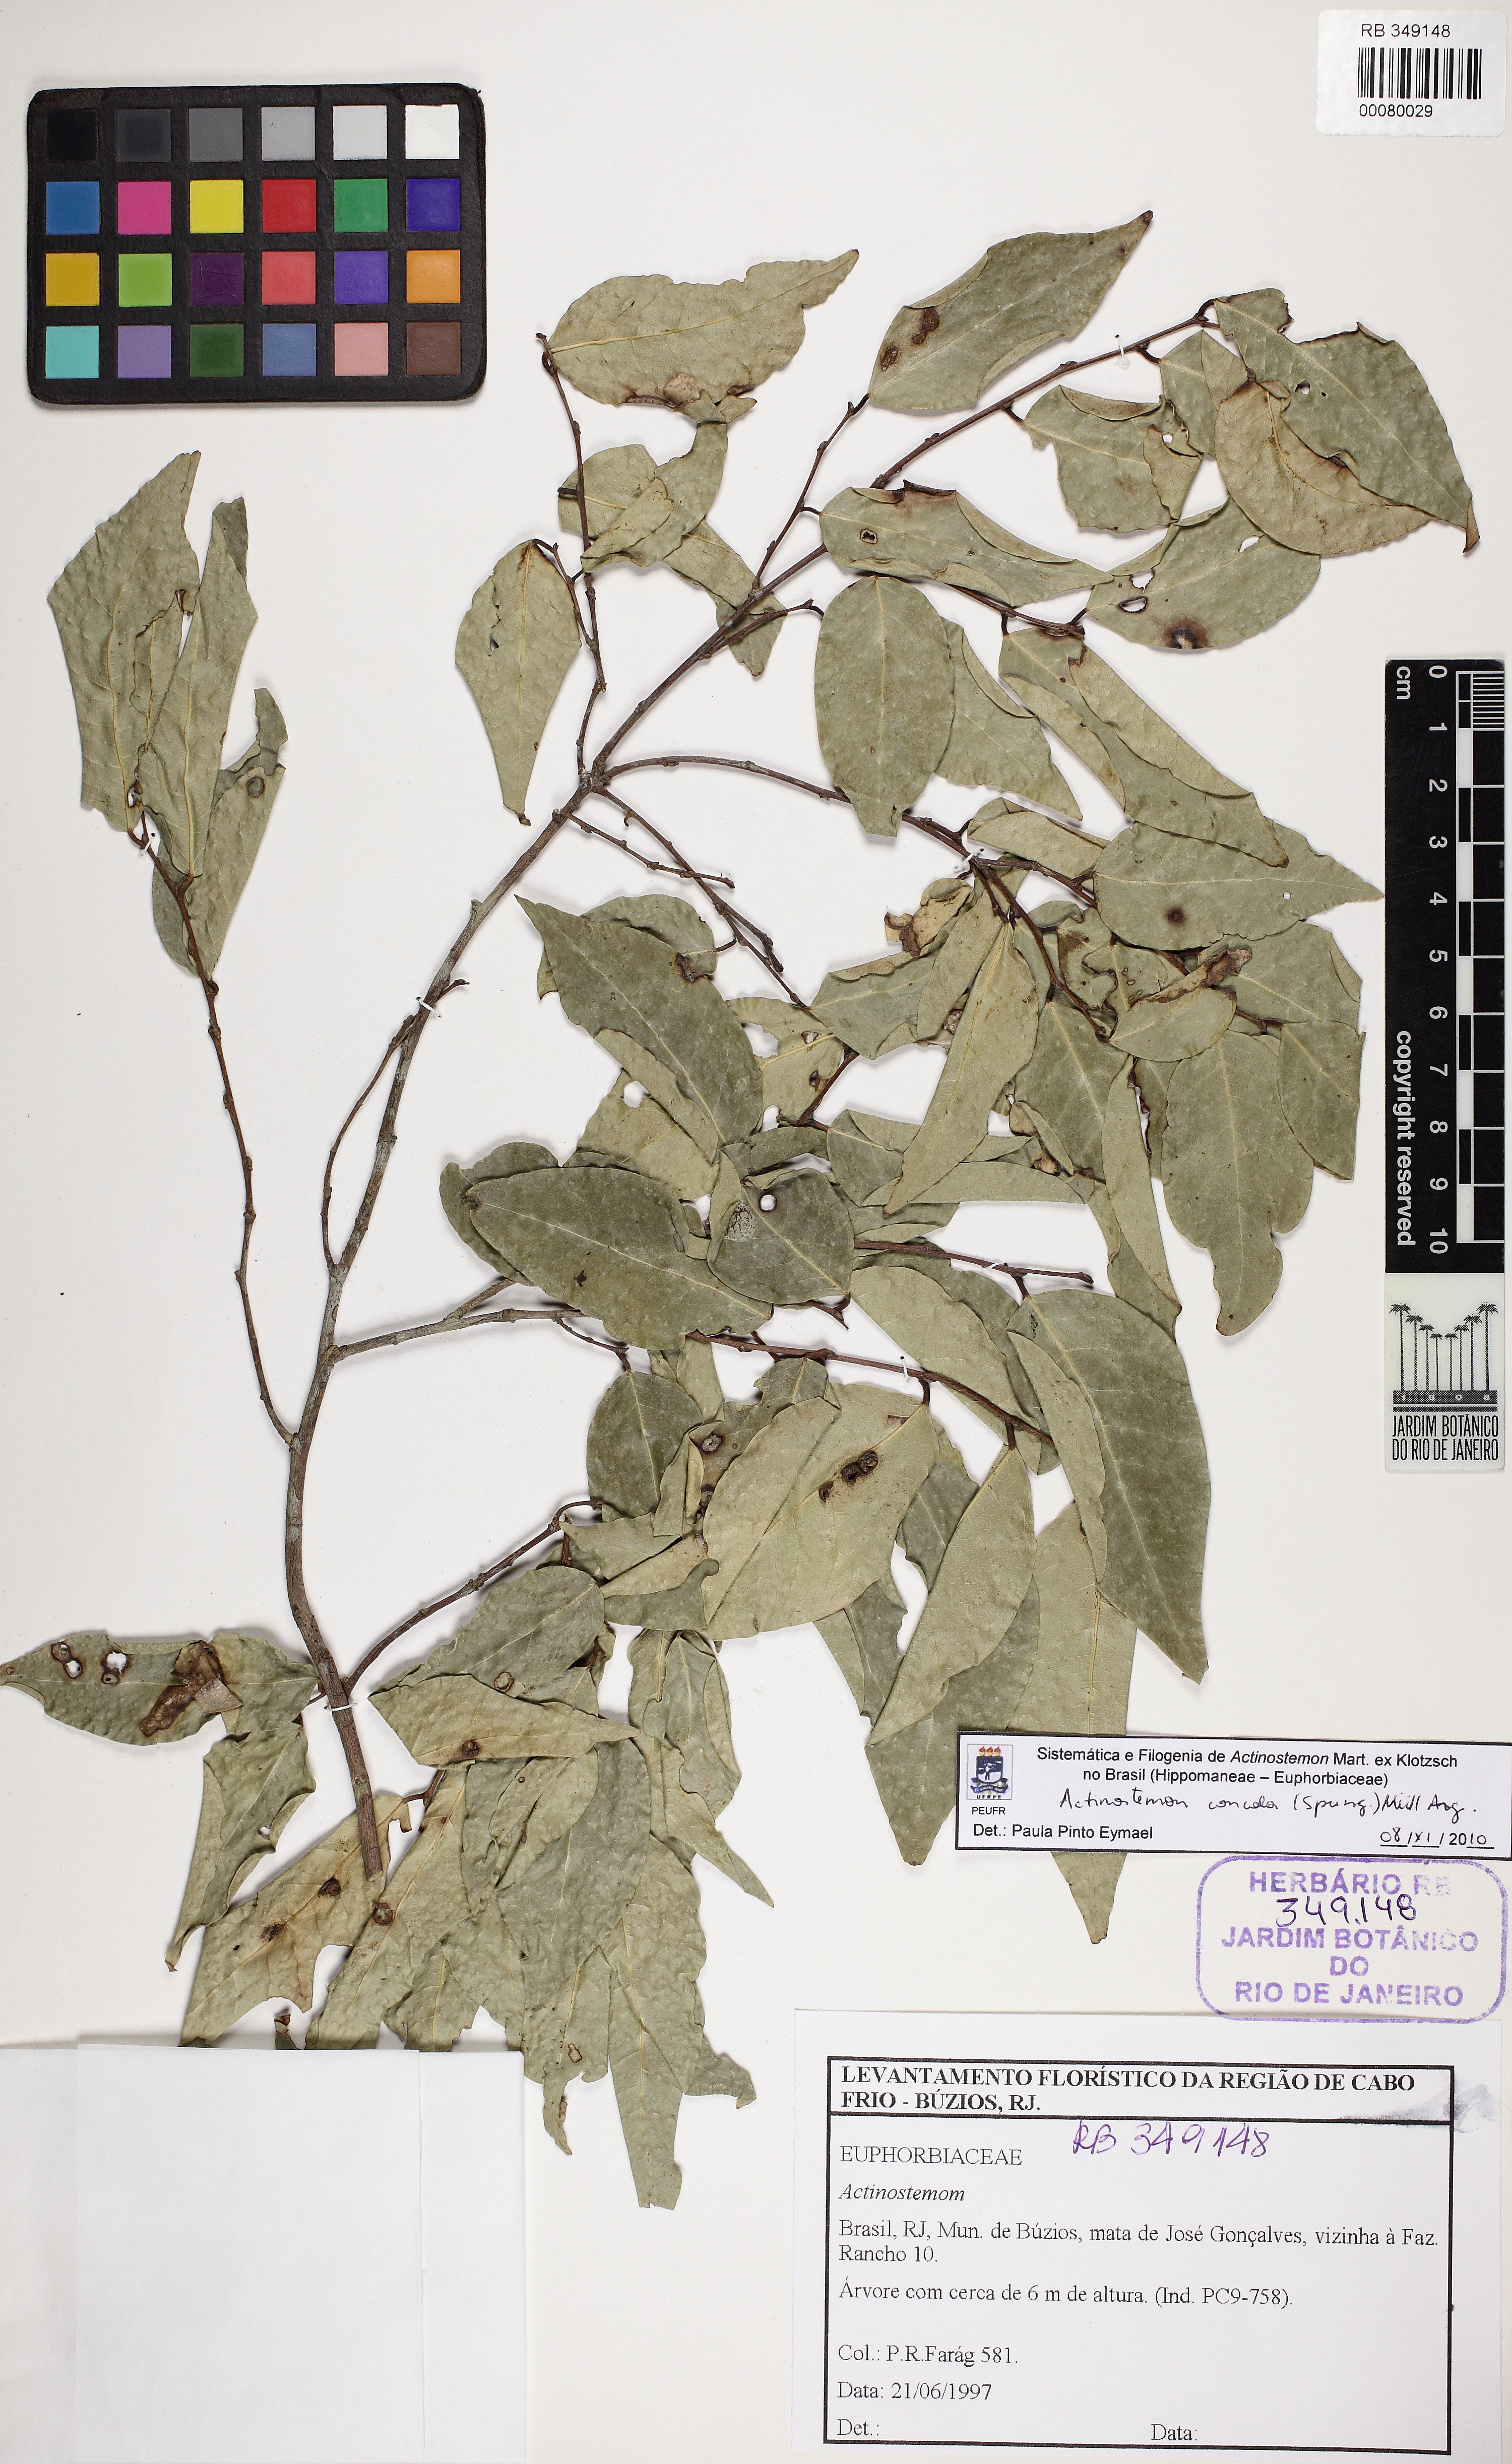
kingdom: Plantae
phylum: Tracheophyta
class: Magnoliopsida
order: Malpighiales
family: Euphorbiaceae
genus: Actinostemon
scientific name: Actinostemon concolor
